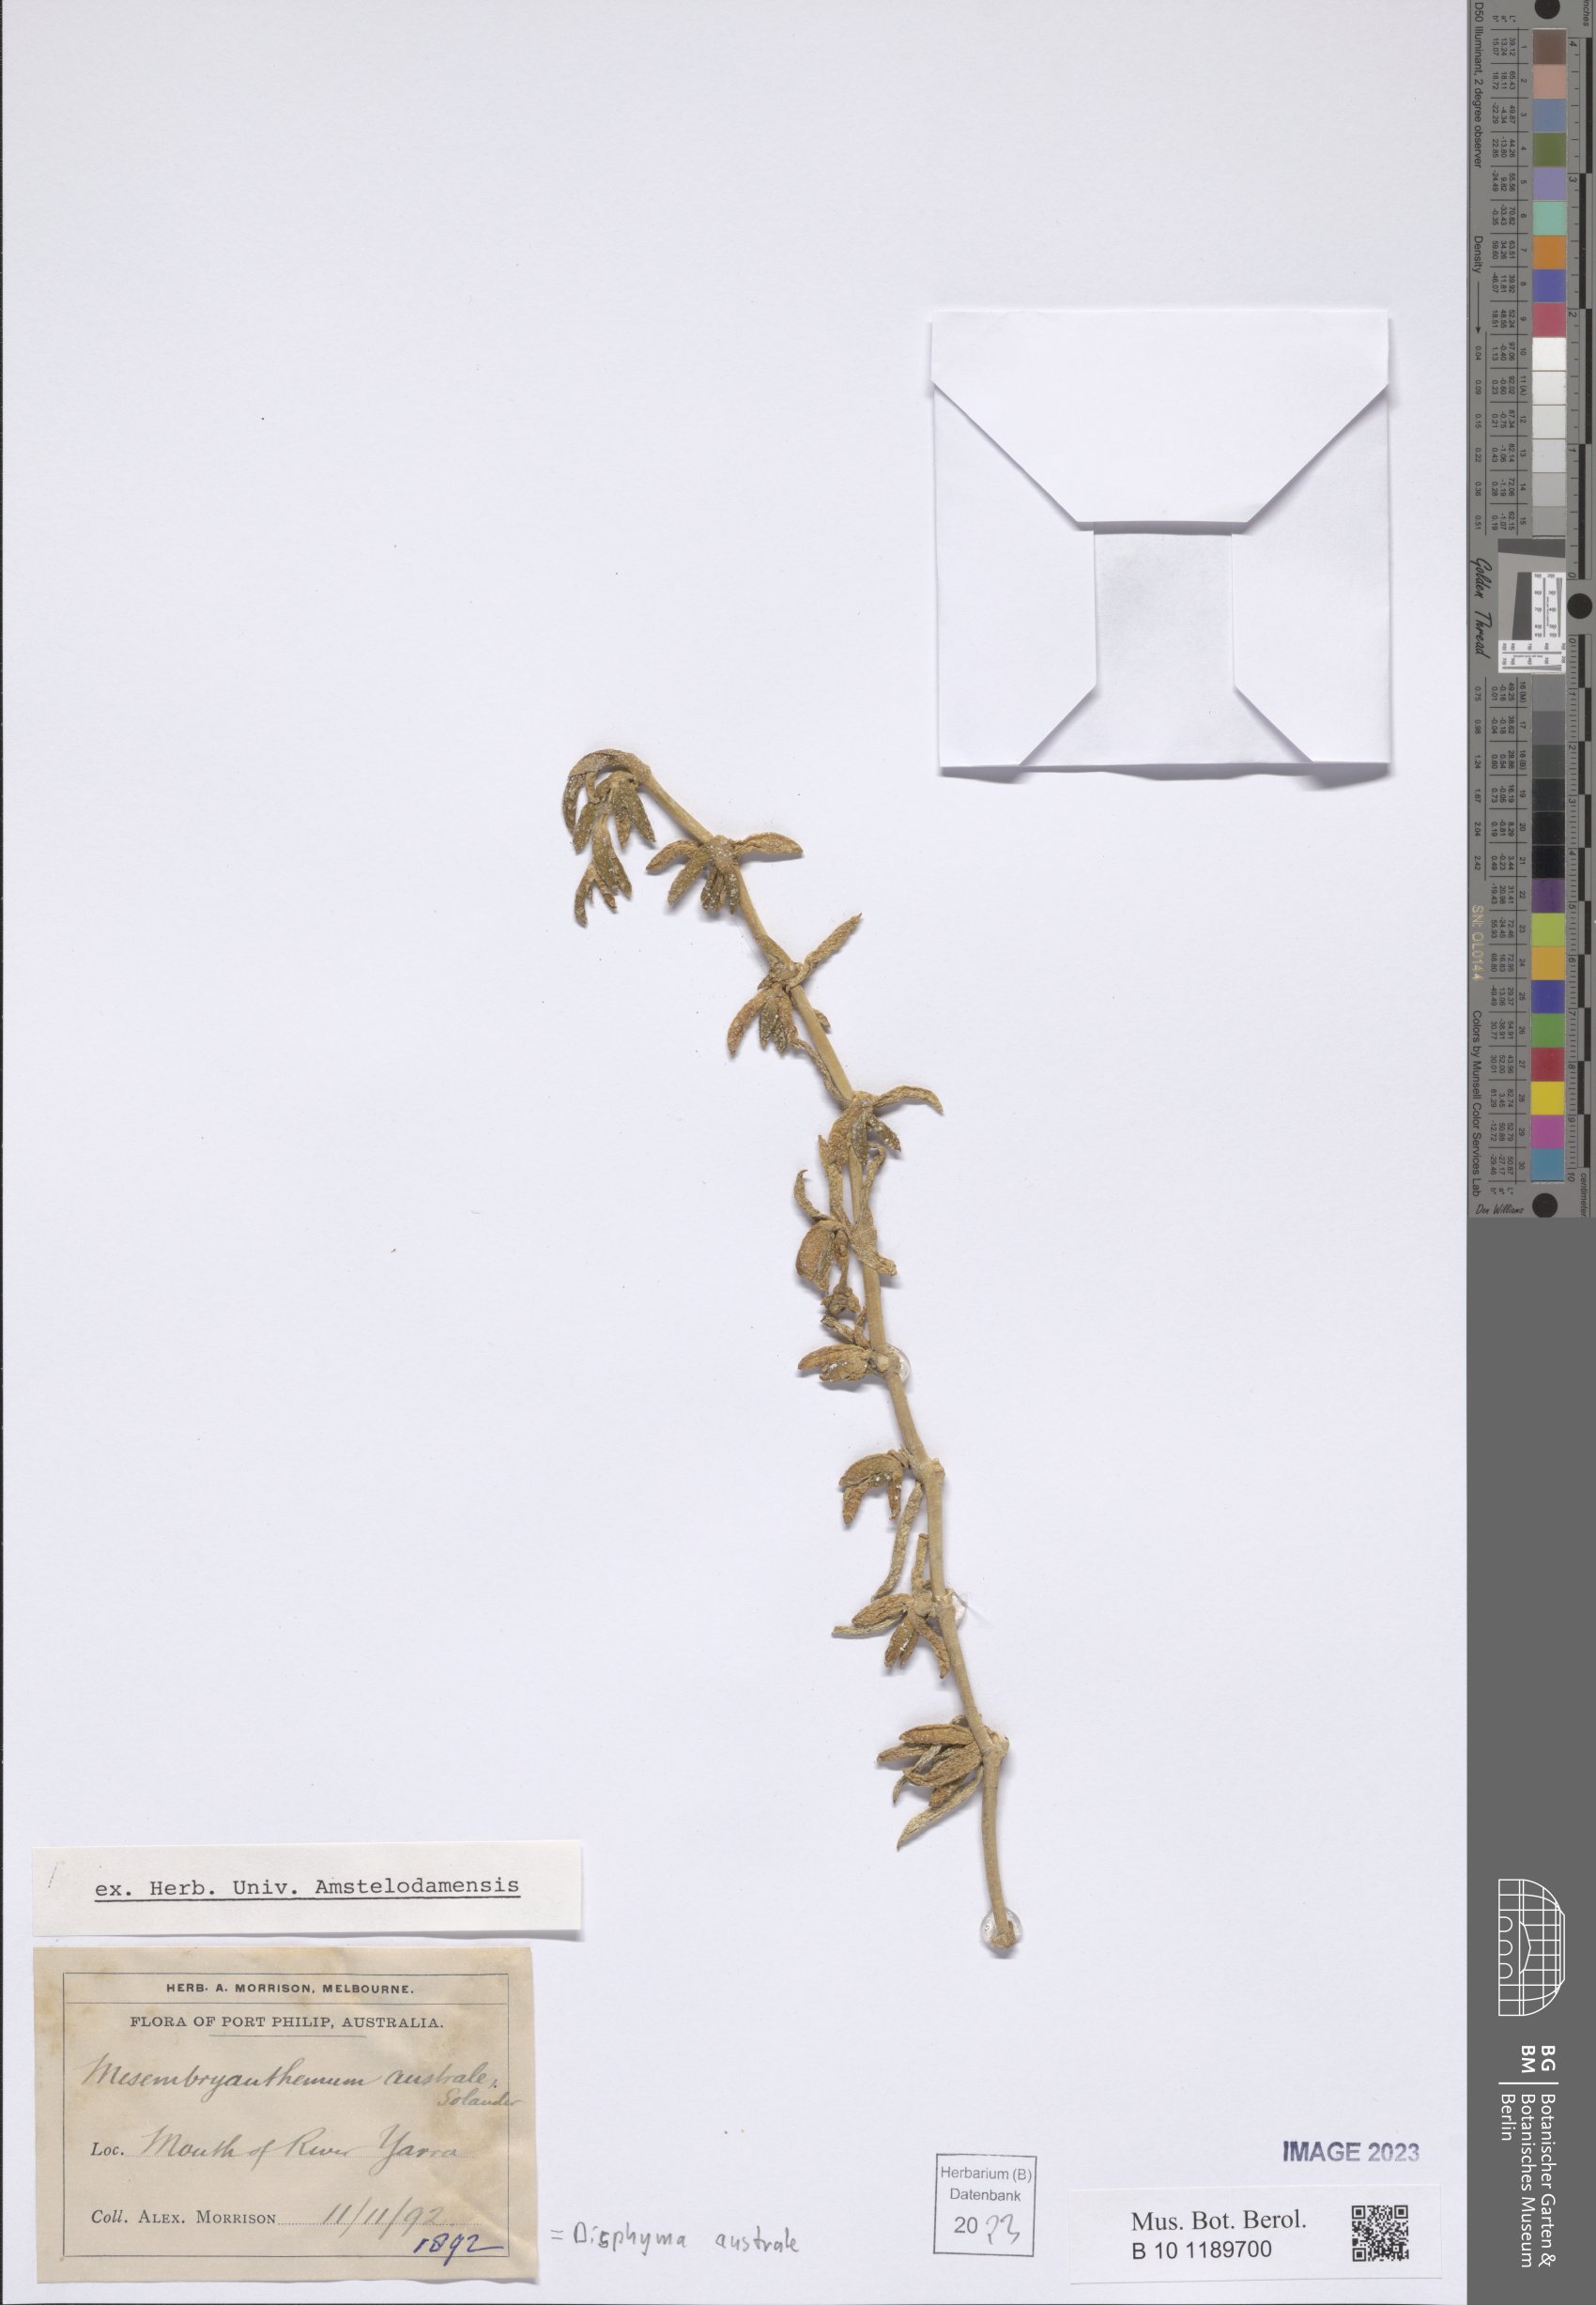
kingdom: Plantae
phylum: Tracheophyta
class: Magnoliopsida
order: Caryophyllales
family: Aizoaceae
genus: Disphyma
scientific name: Disphyma australe
